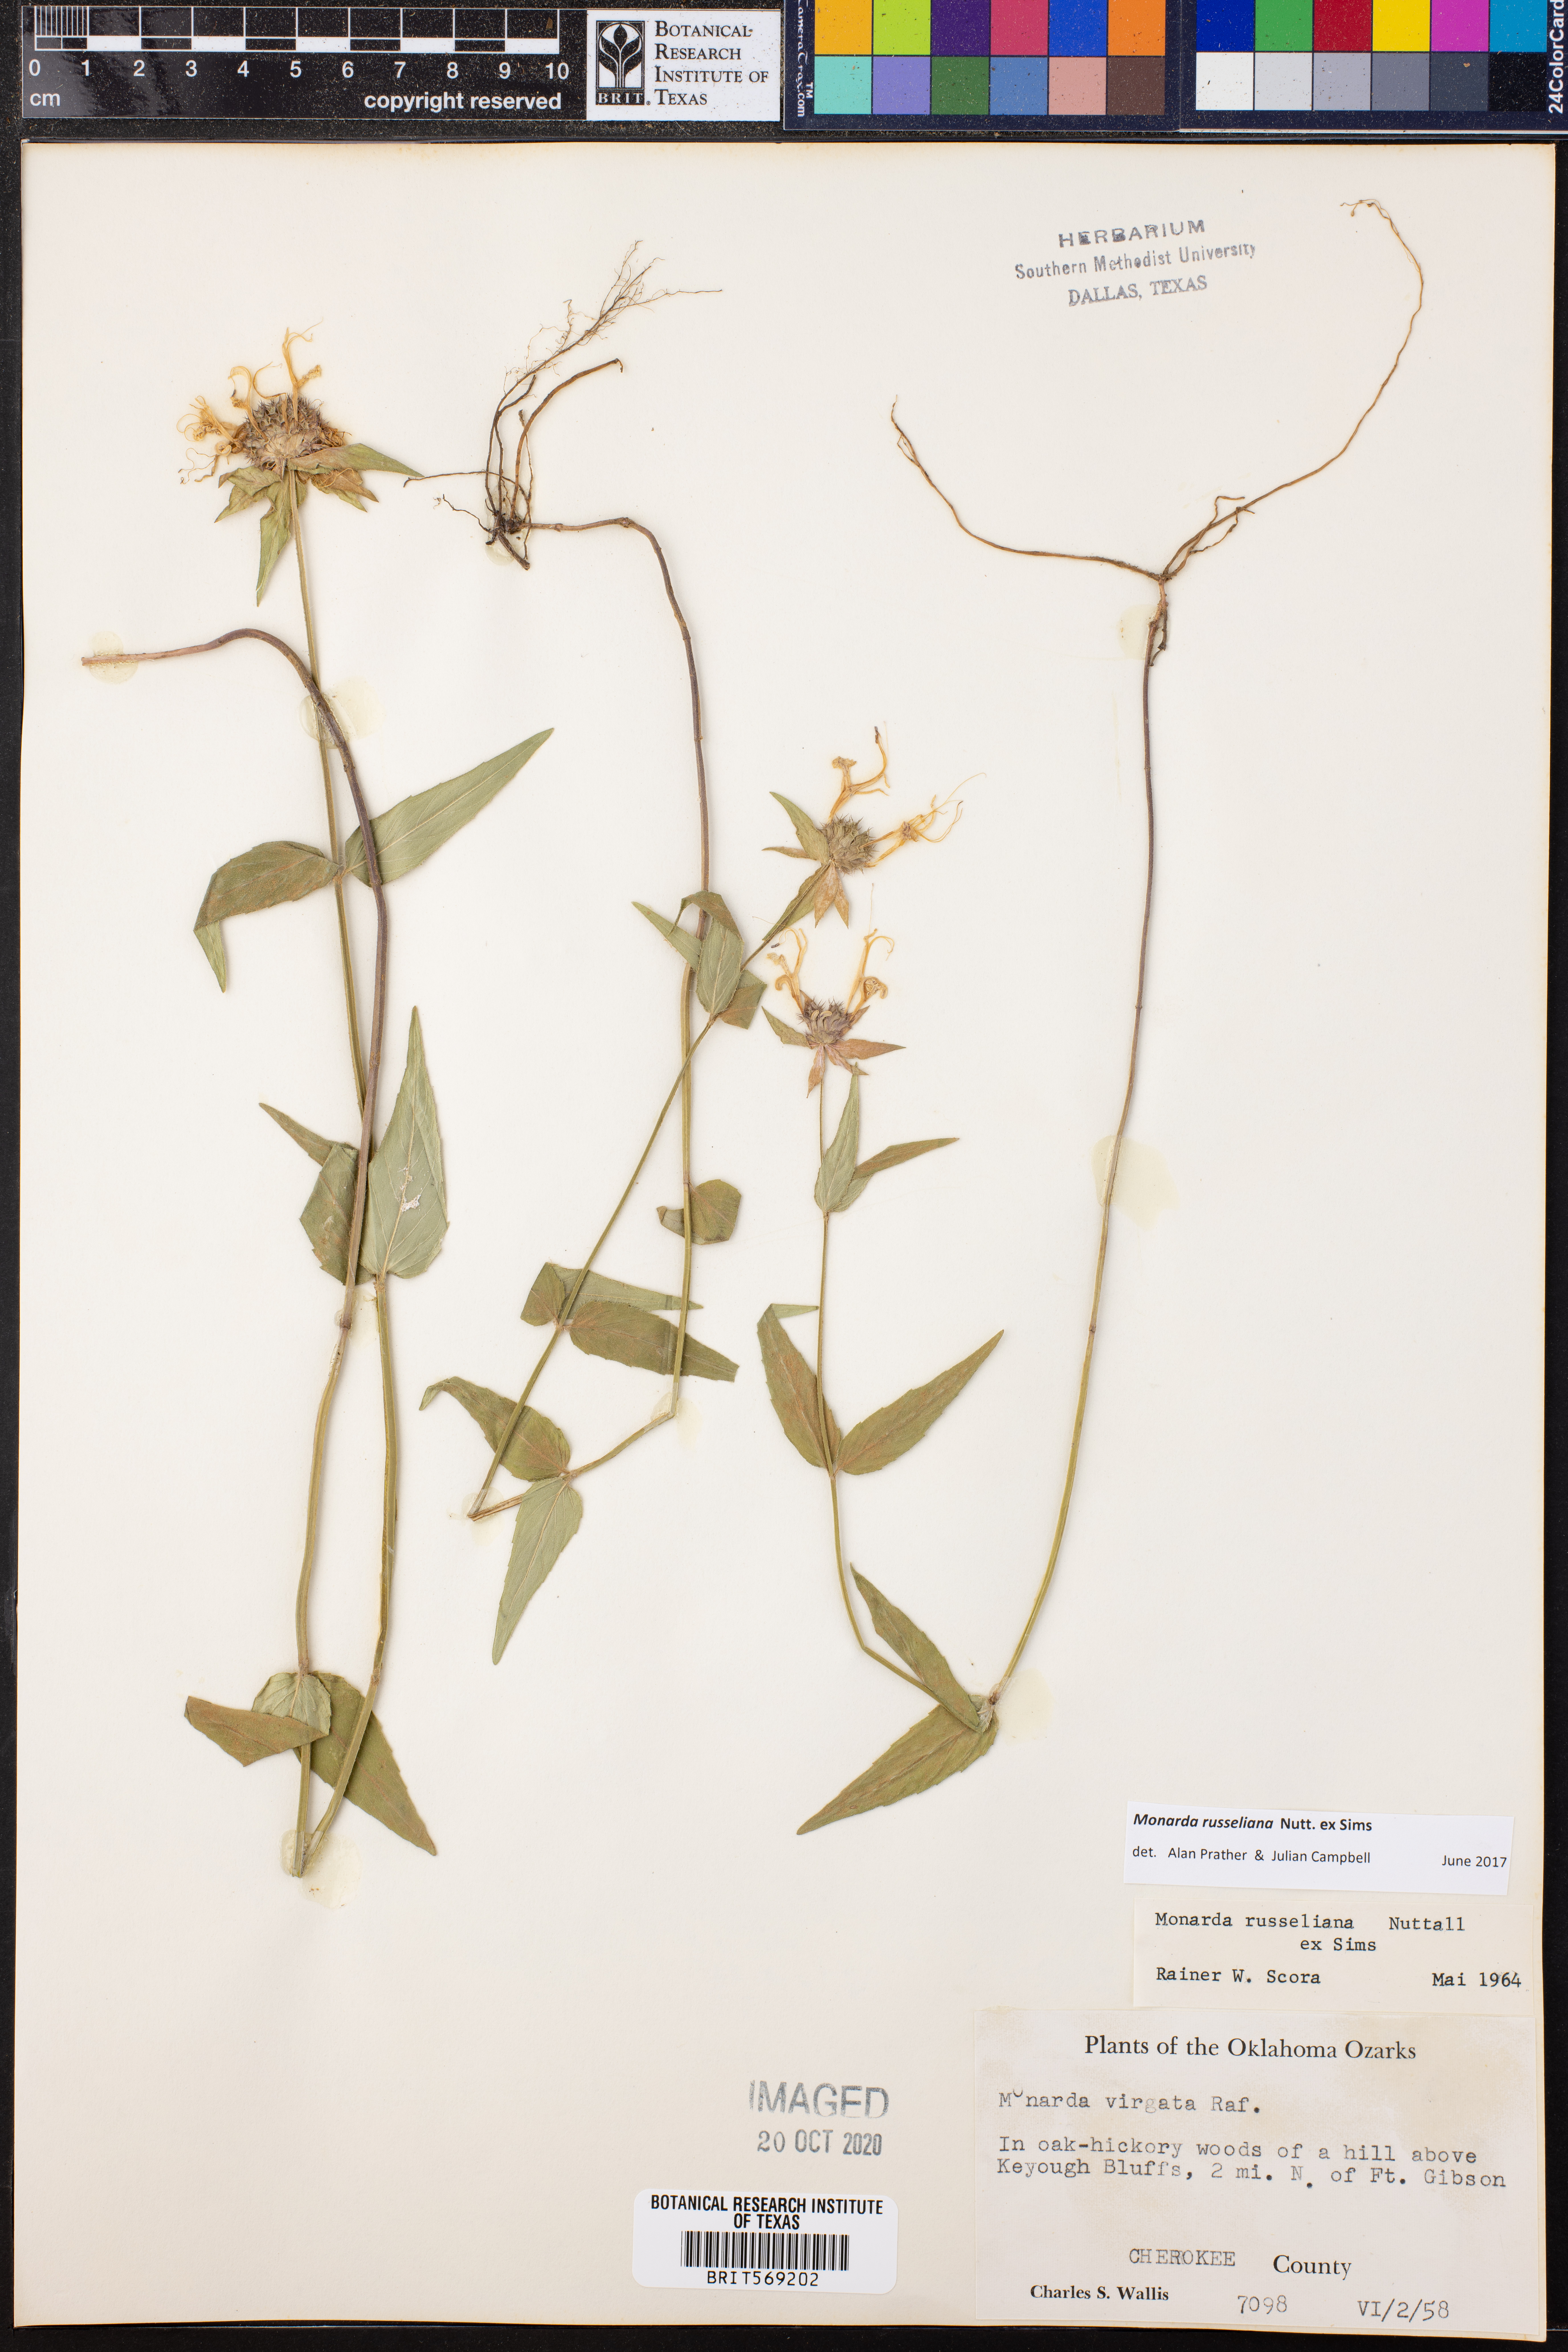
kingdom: Plantae
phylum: Tracheophyta
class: Magnoliopsida
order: Lamiales
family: Lamiaceae
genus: Monarda
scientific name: Monarda russeliana
